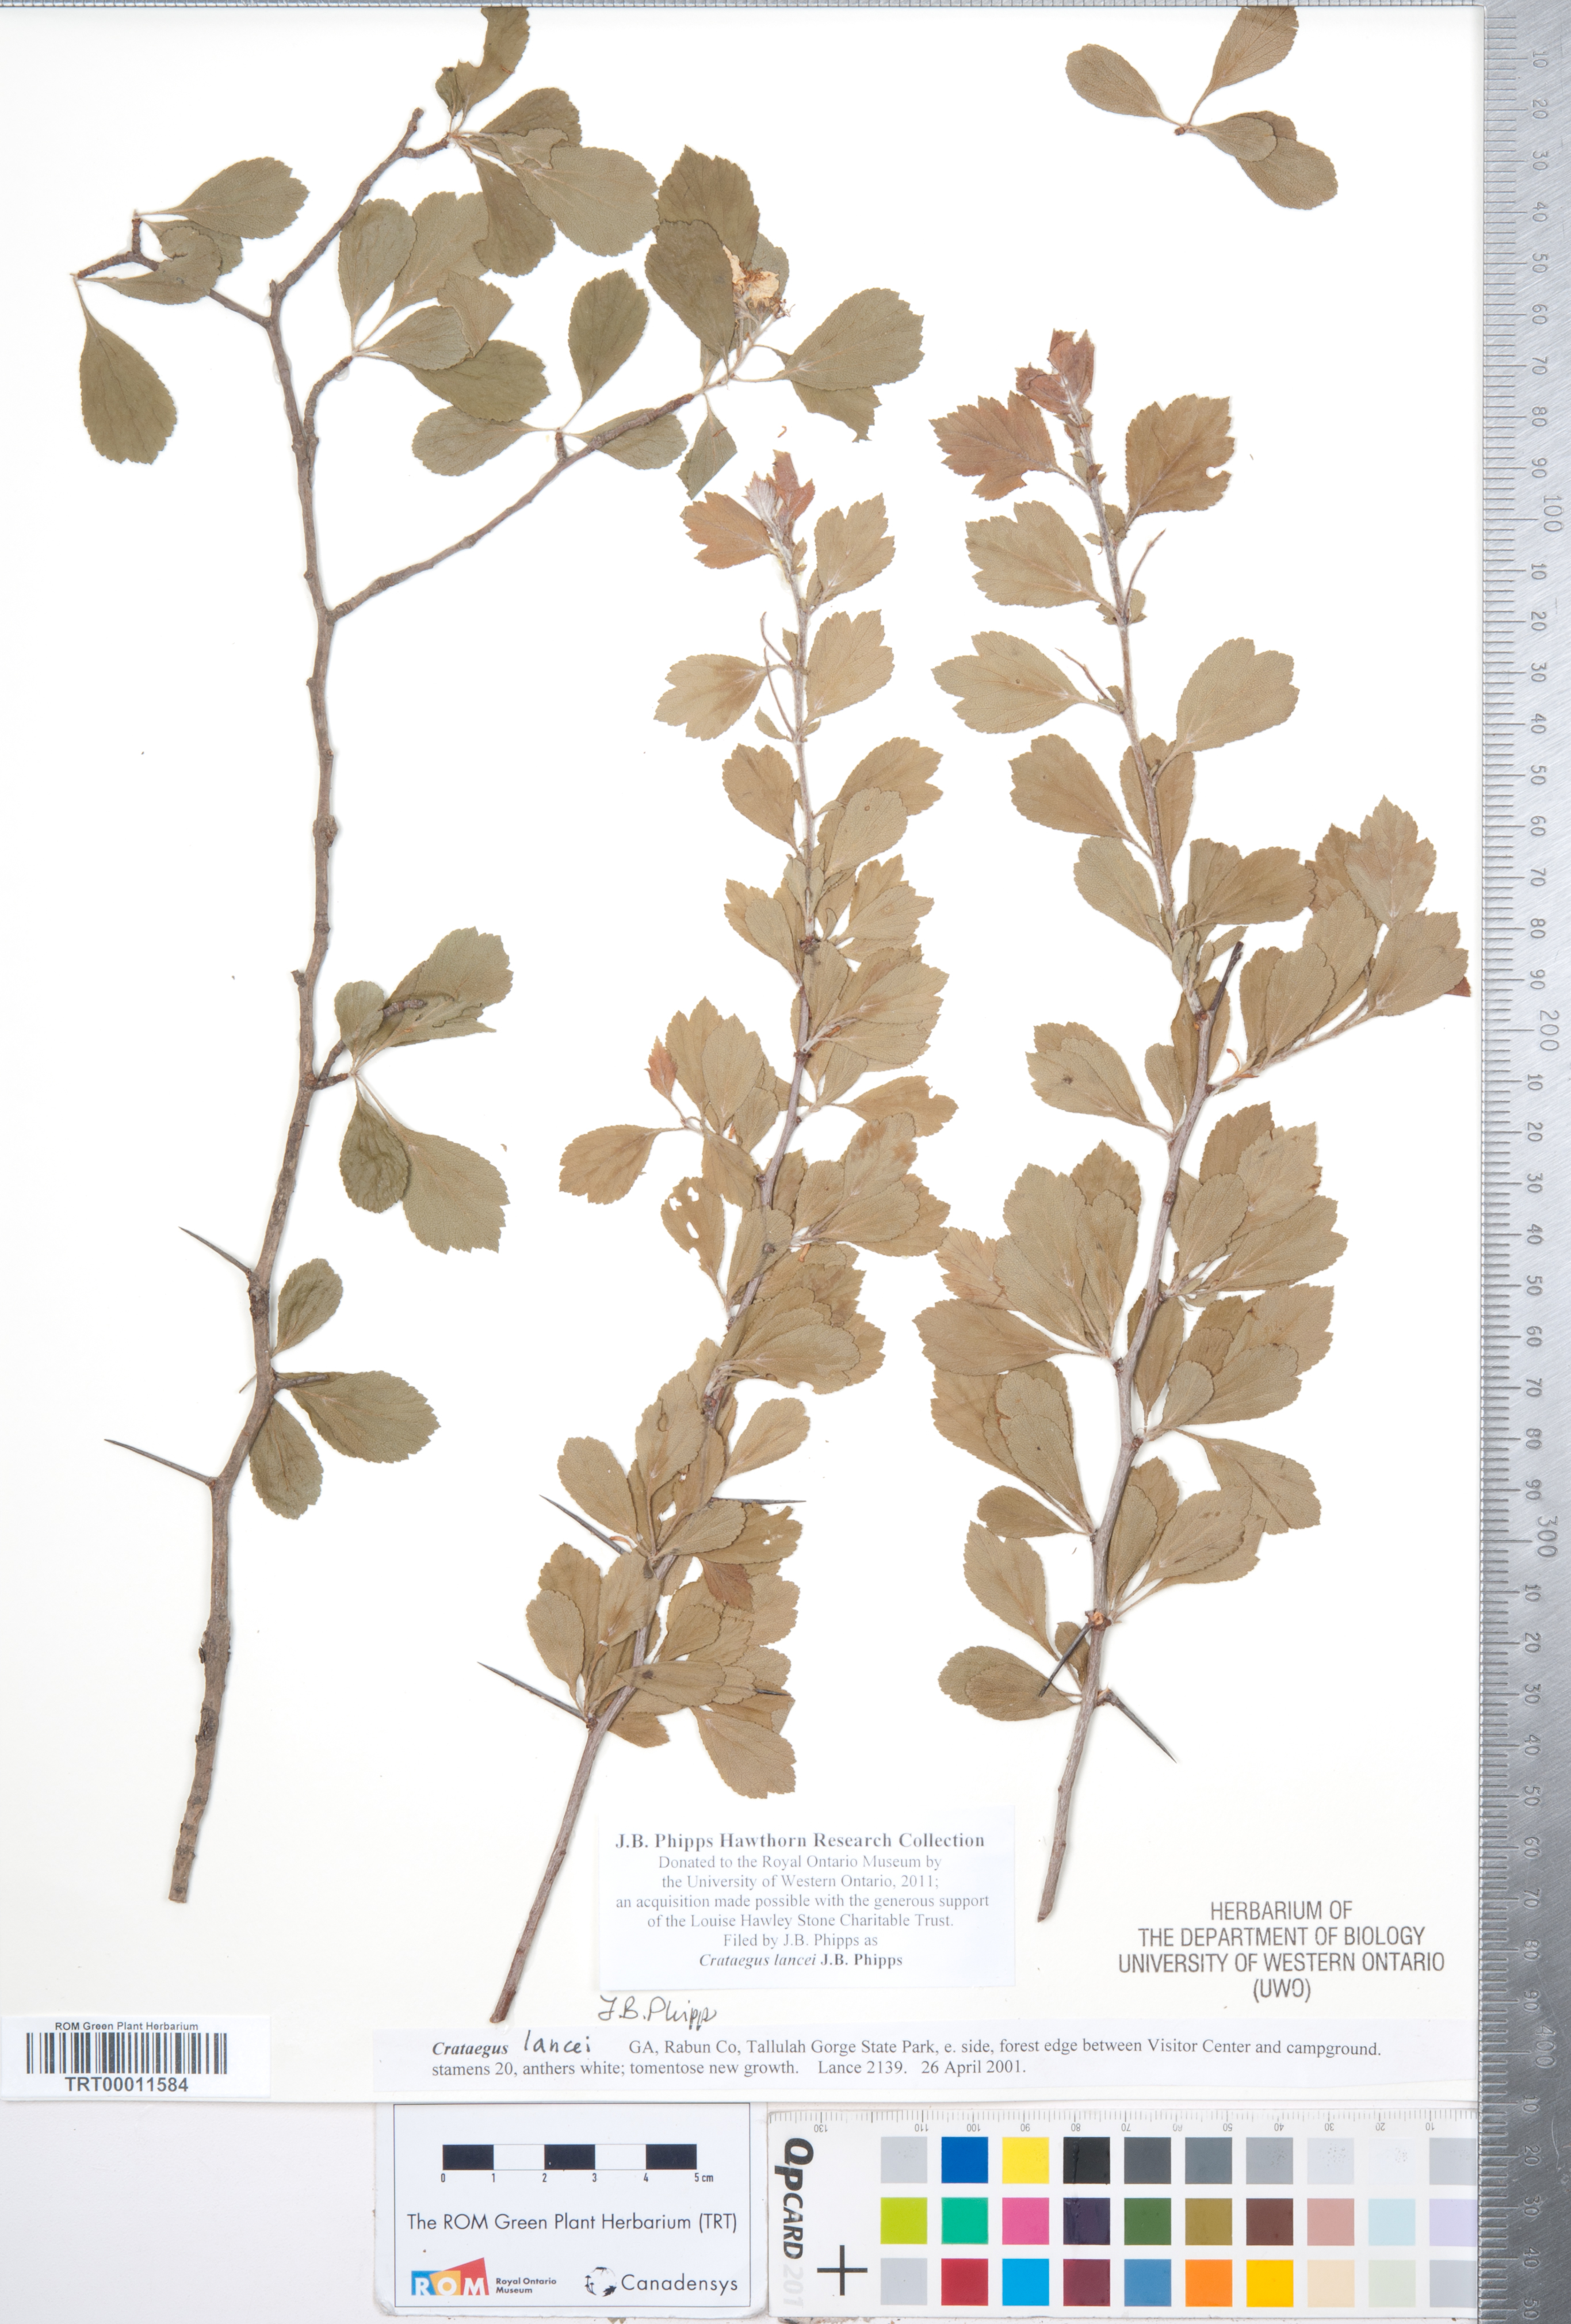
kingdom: Plantae
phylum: Tracheophyta
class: Magnoliopsida
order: Rosales
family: Rosaceae
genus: Crataegus
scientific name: Crataegus senta
